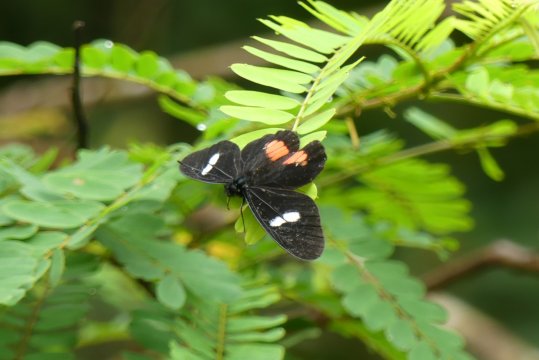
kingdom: Animalia
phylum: Arthropoda
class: Insecta
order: Lepidoptera
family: Pieridae
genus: Archonias
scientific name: Archonias brassolis
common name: Cattleheart White
